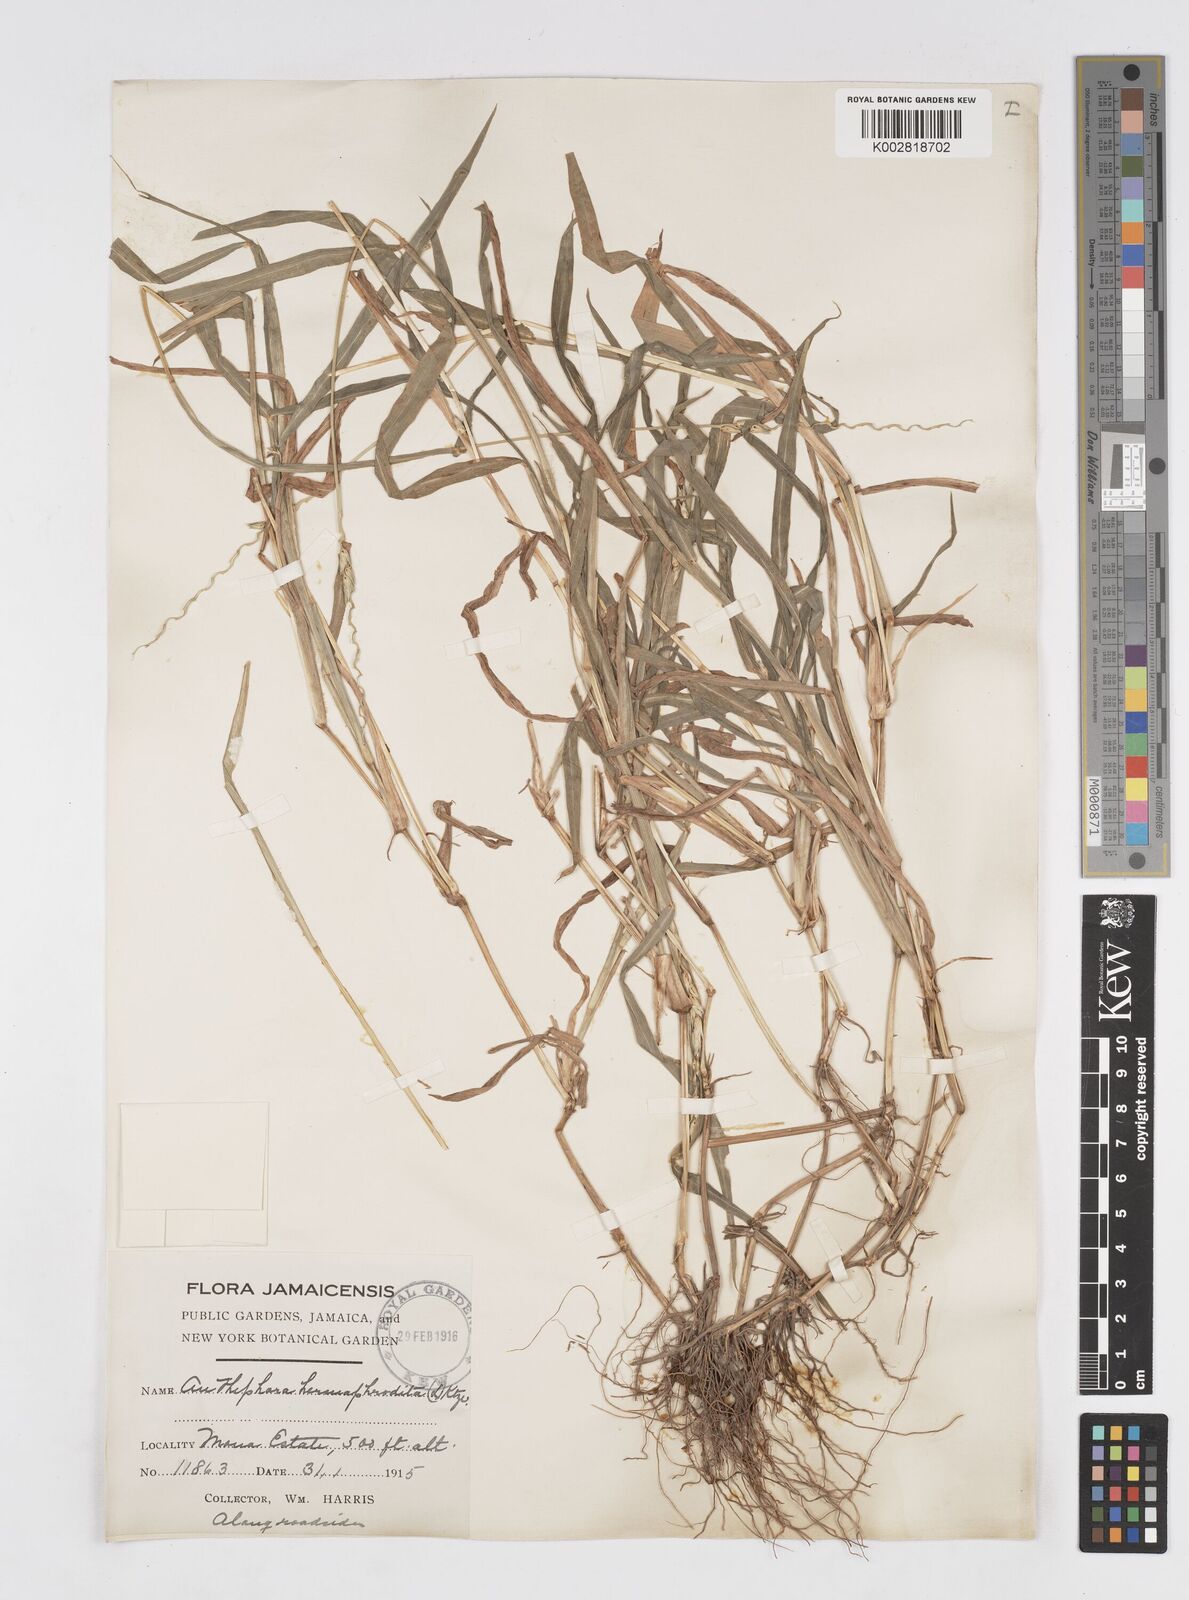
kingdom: Plantae
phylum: Tracheophyta
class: Liliopsida
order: Poales
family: Poaceae
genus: Anthephora
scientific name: Anthephora hermaphrodita
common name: Oldfield grass
